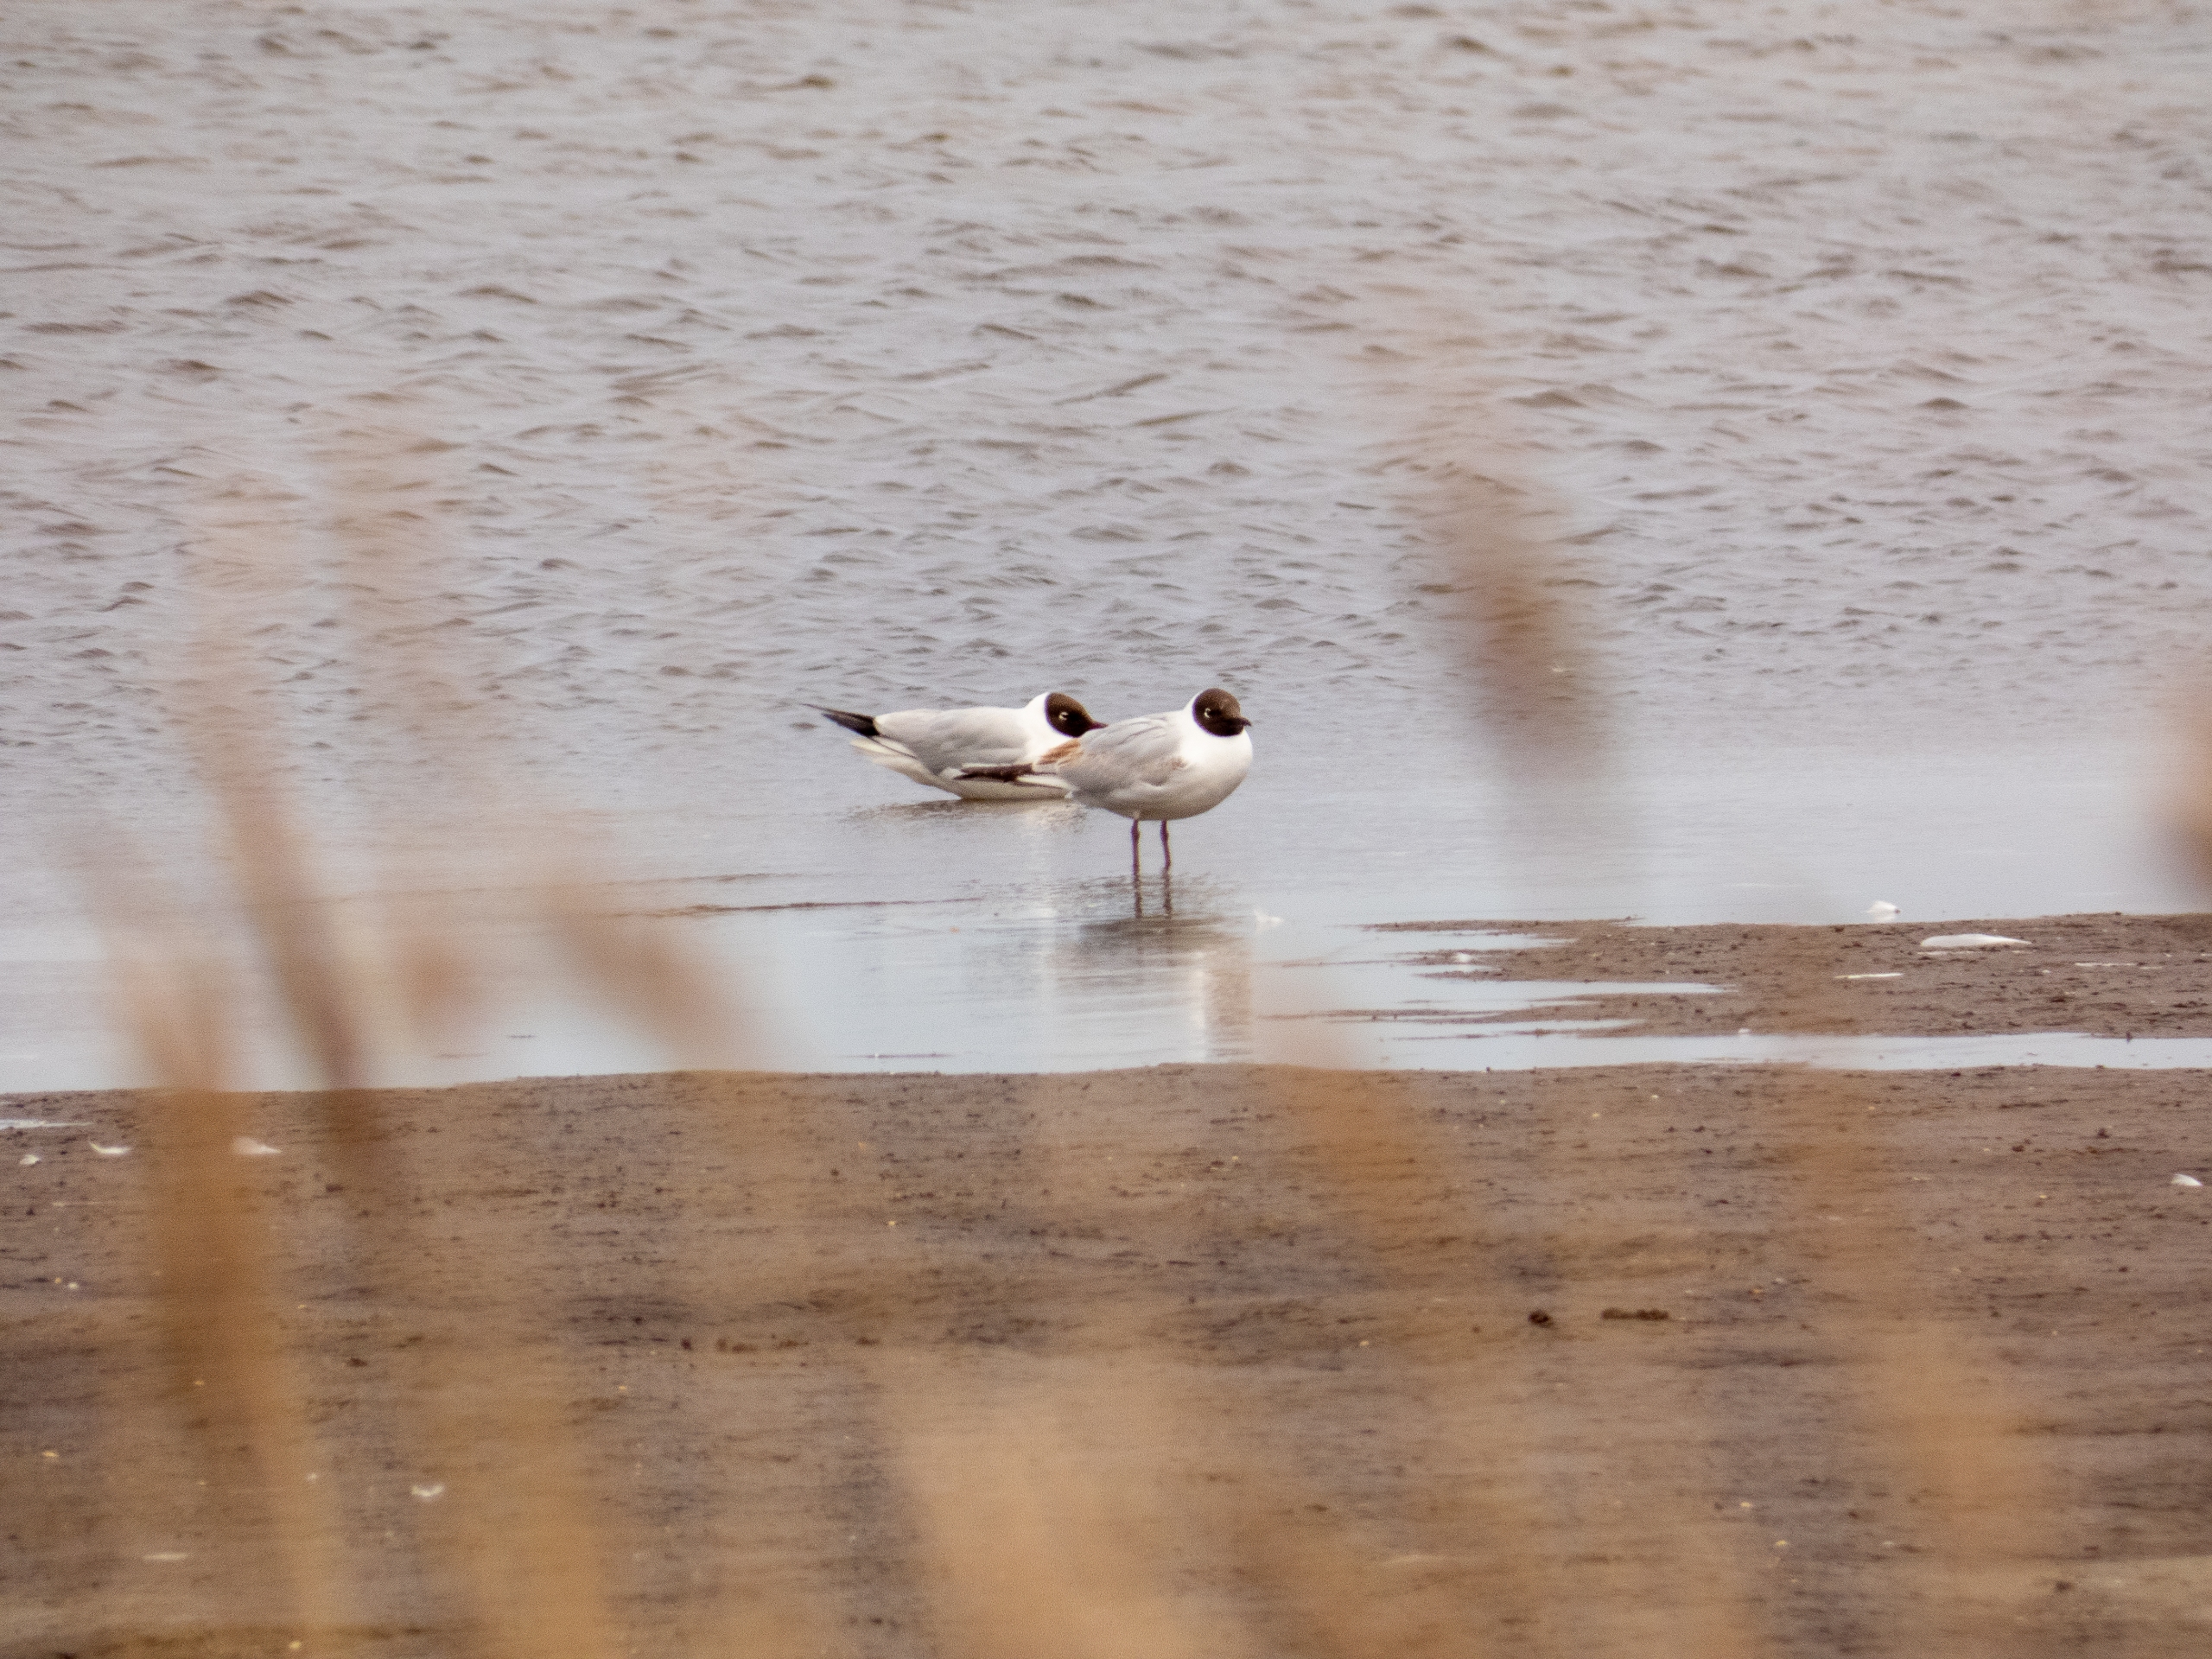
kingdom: Animalia
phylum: Chordata
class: Aves
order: Charadriiformes
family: Laridae
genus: Chroicocephalus
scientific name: Chroicocephalus ridibundus
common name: Hættemåge
